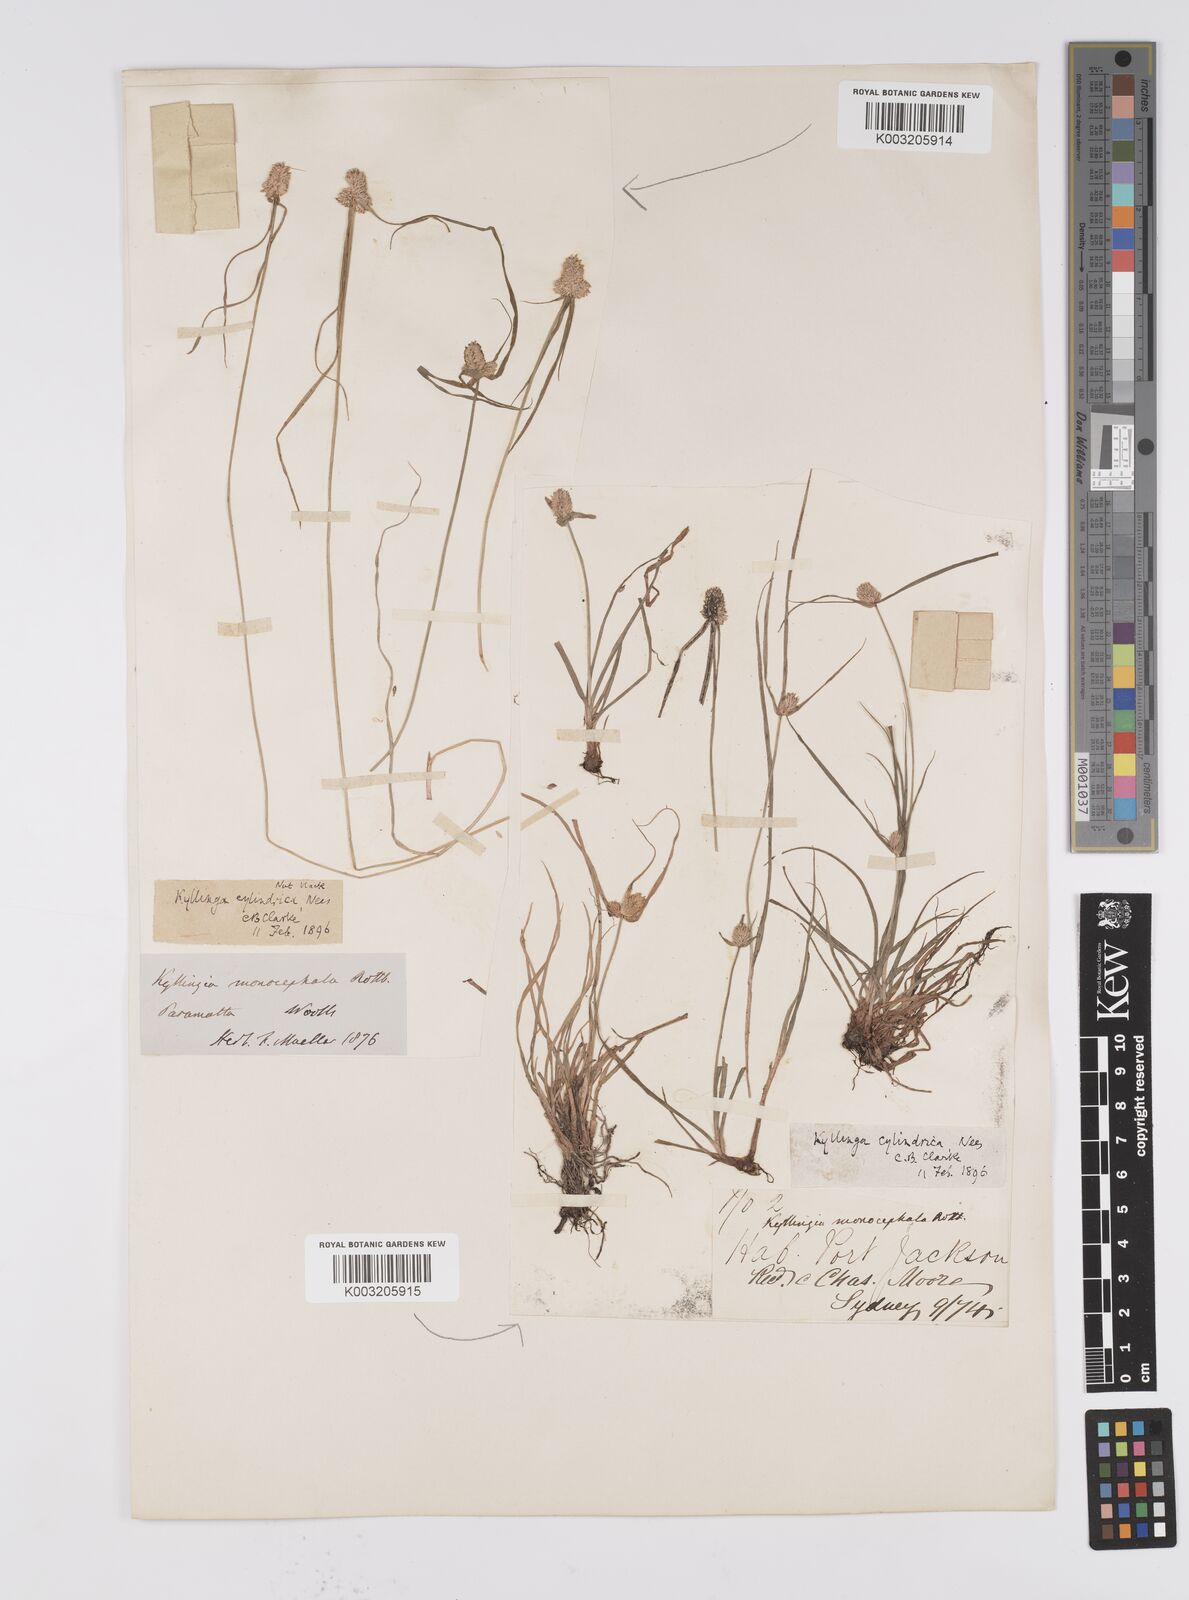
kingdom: Plantae
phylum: Tracheophyta
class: Liliopsida
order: Poales
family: Cyperaceae
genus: Cyperus
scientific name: Cyperus
